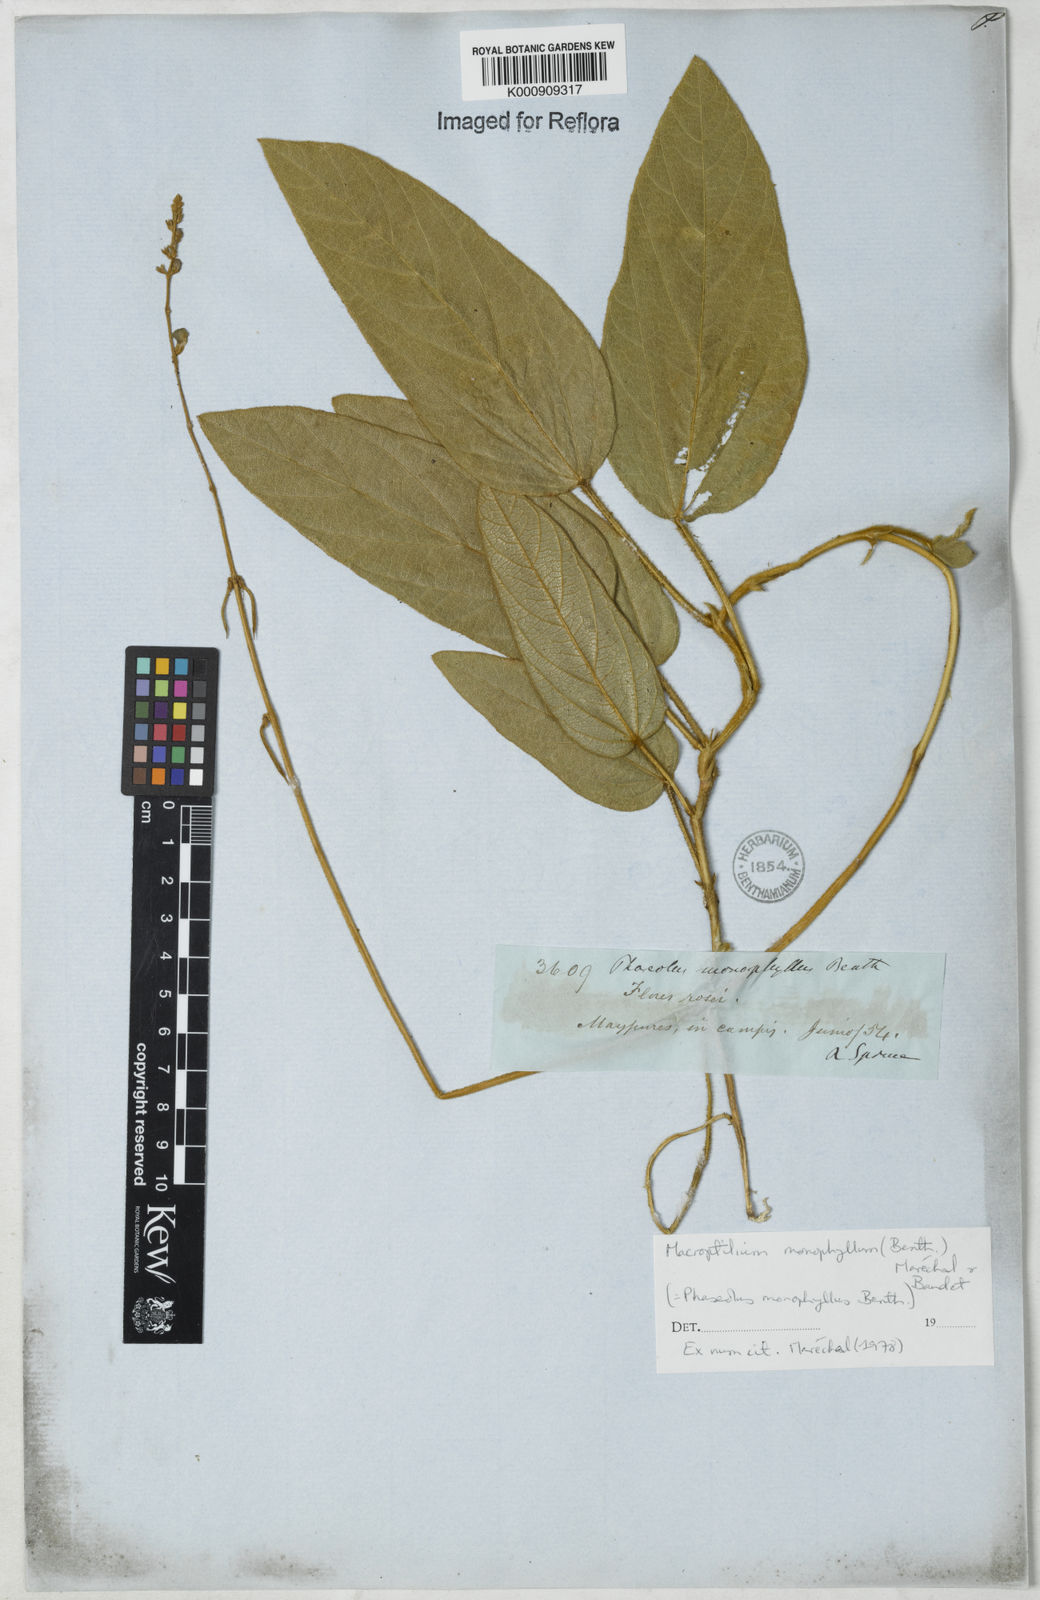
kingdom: Plantae
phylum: Tracheophyta
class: Magnoliopsida
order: Fabales
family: Fabaceae
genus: Macroptilium
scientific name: Macroptilium monophyllum
